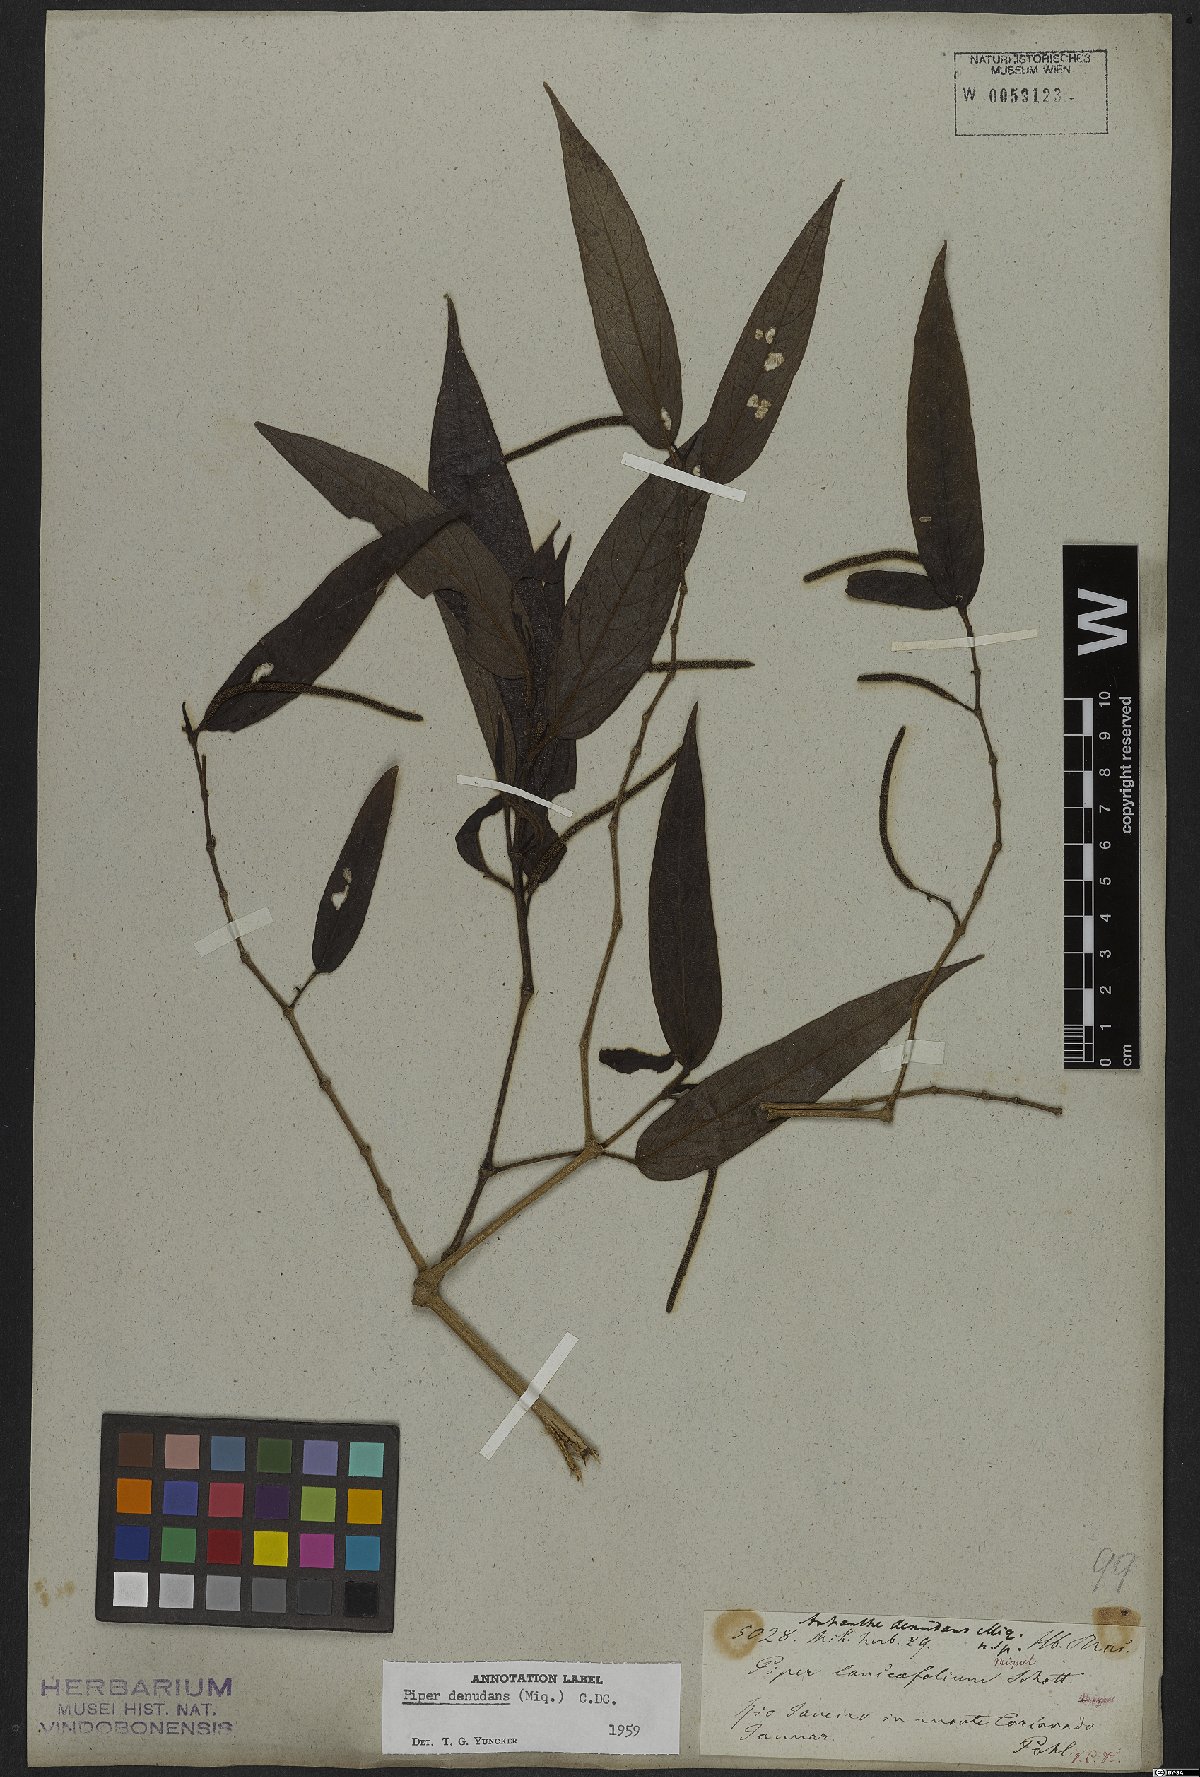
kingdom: Plantae
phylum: Tracheophyta
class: Magnoliopsida
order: Piperales
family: Piperaceae
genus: Piper
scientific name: Piper lepturum
